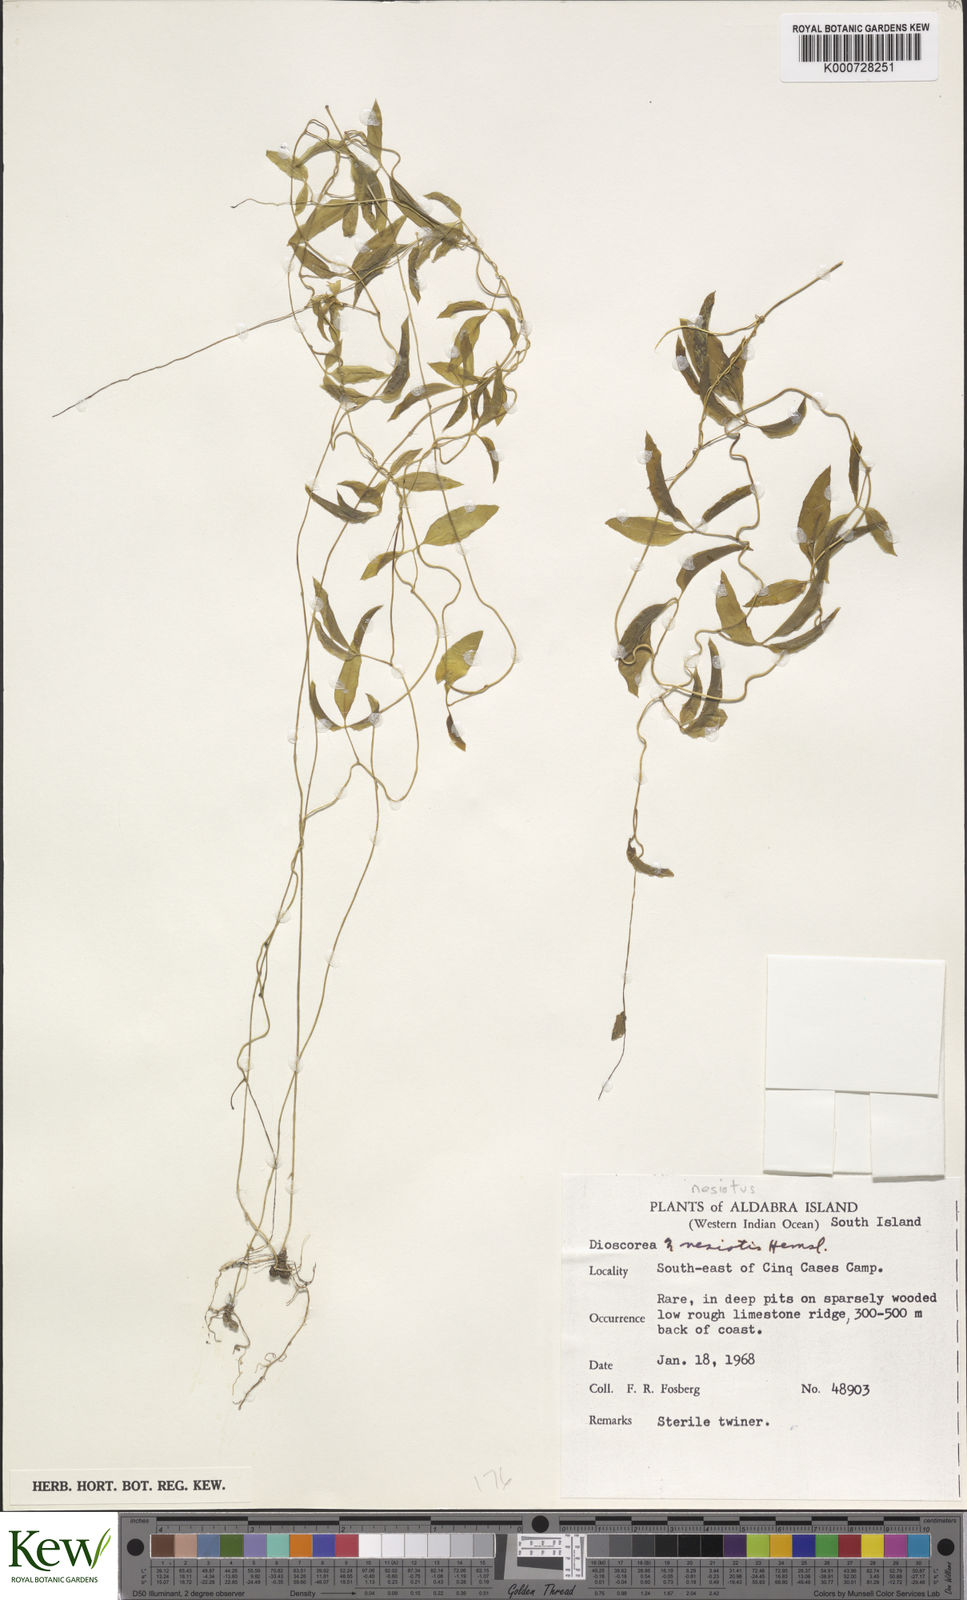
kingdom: Plantae
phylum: Tracheophyta
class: Liliopsida
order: Dioscoreales
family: Dioscoreaceae
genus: Dioscorea
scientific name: Dioscorea bemarivensis
